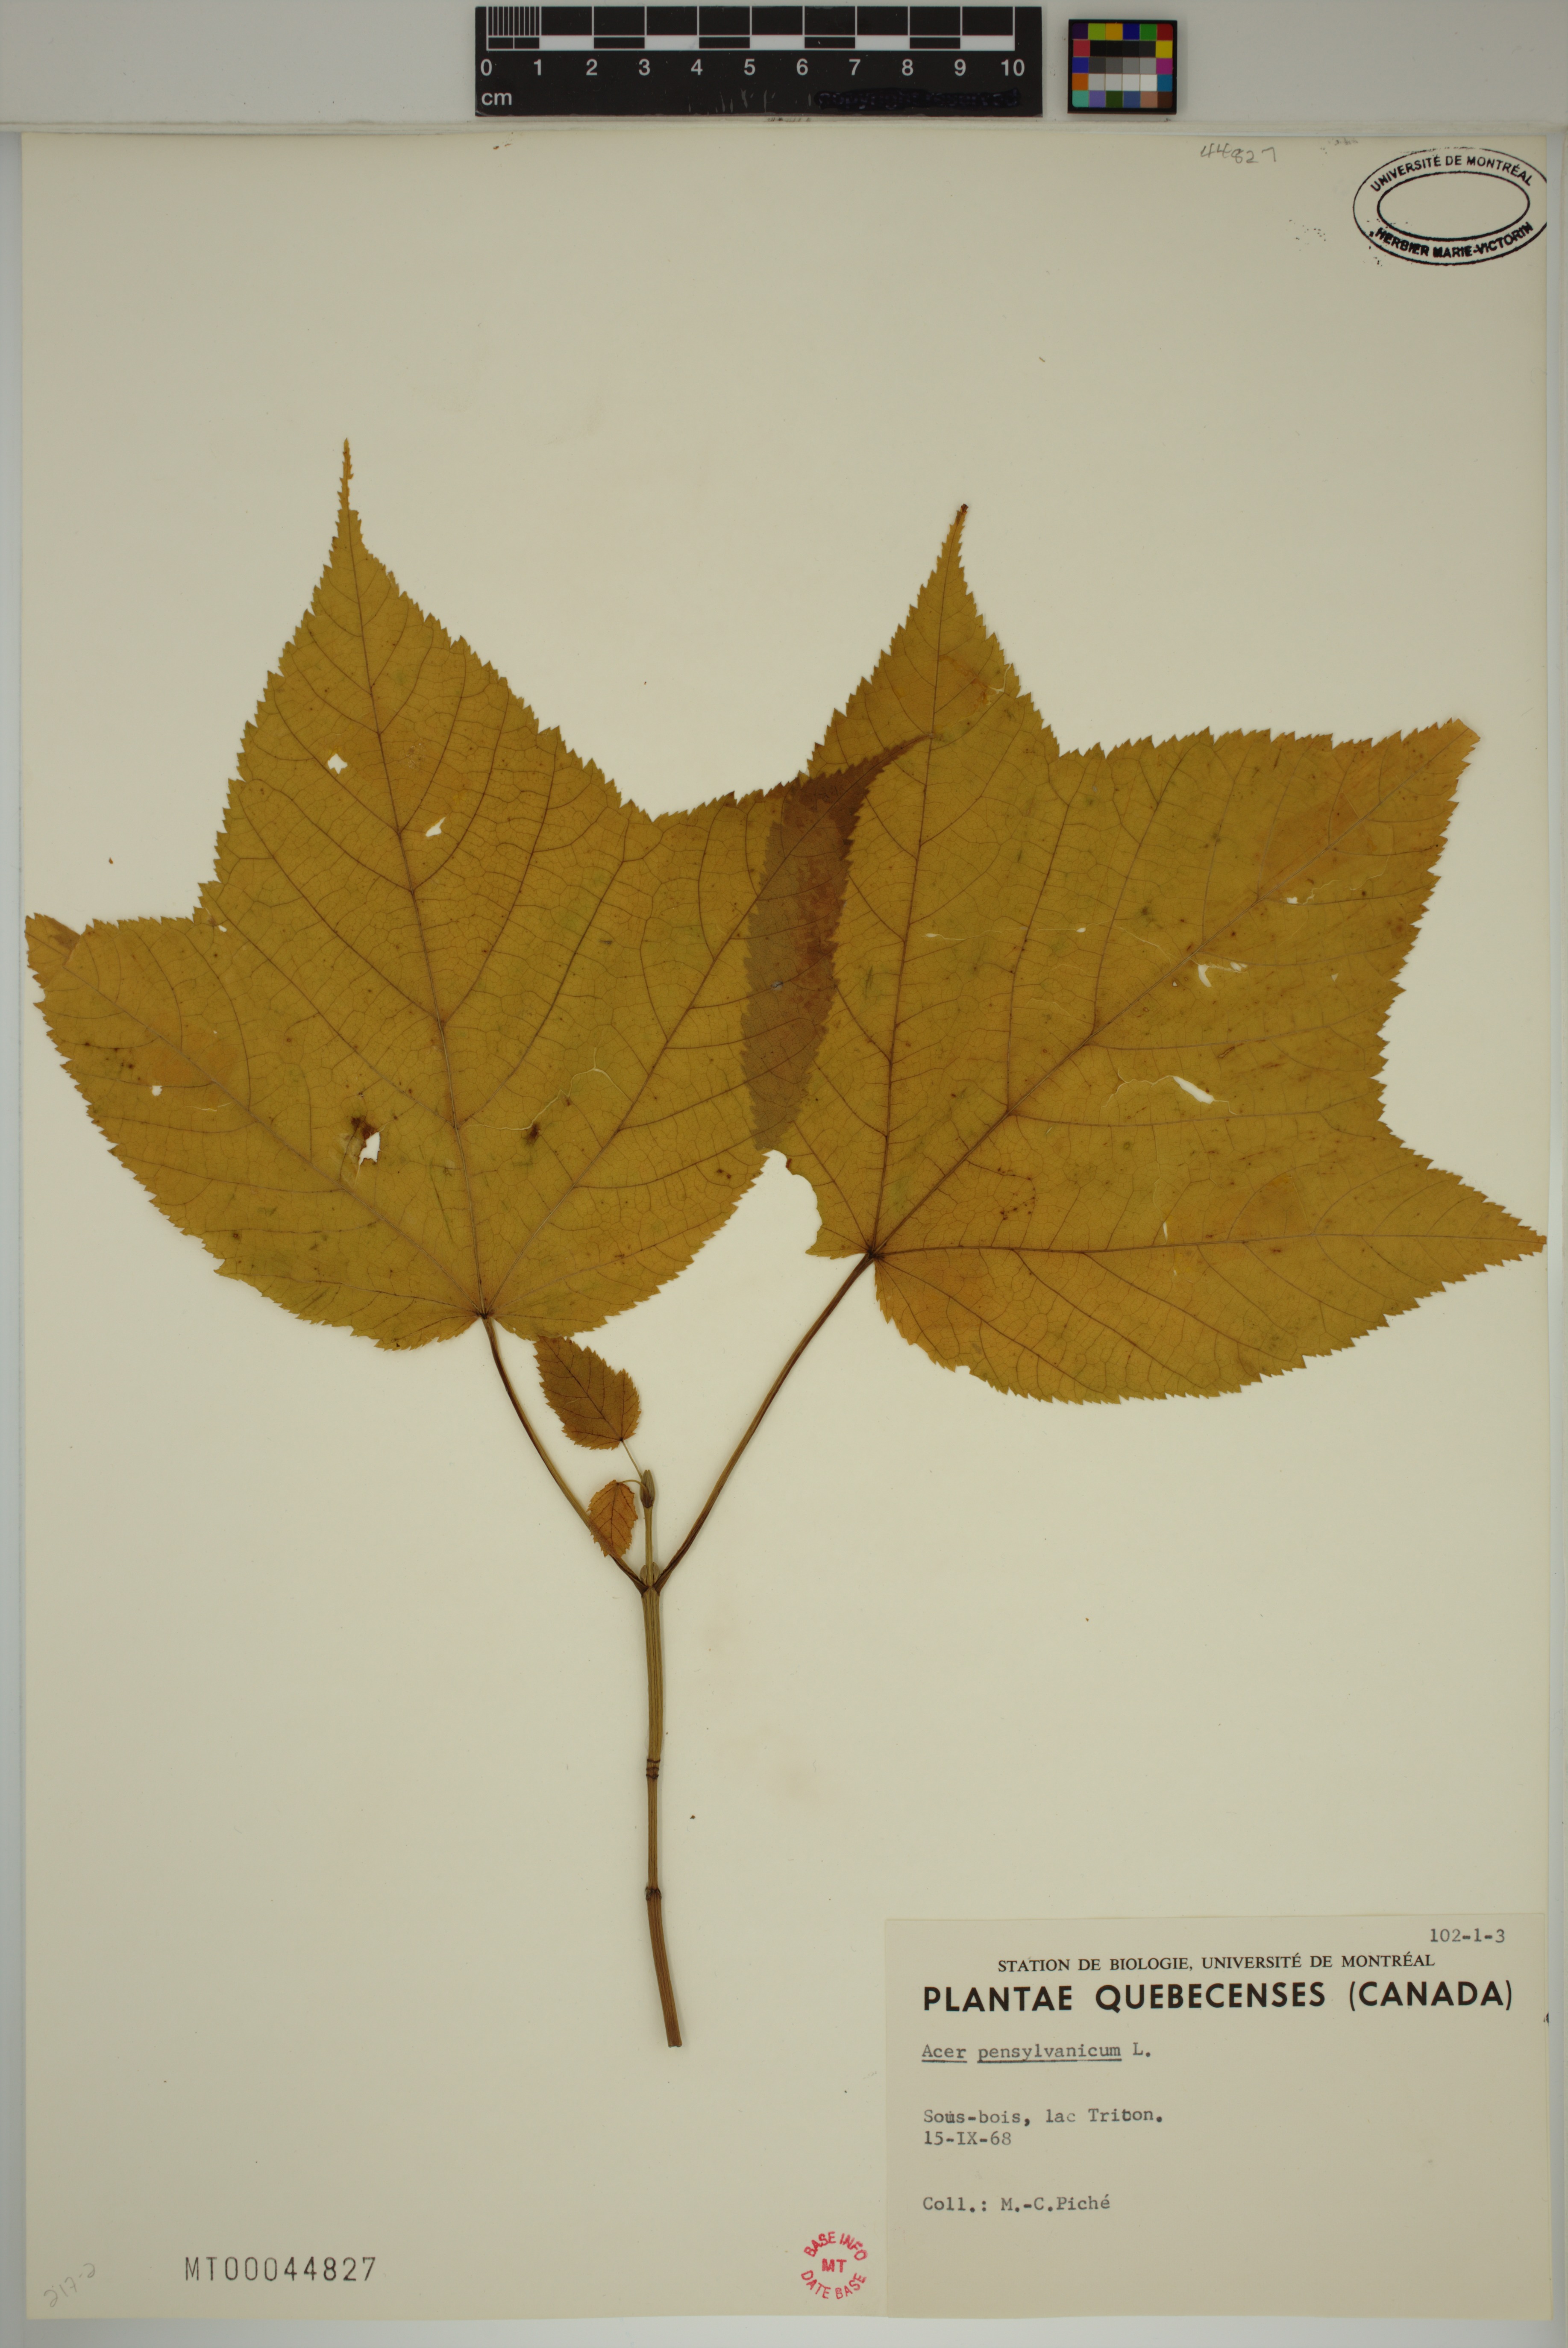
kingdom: Plantae
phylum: Tracheophyta
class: Magnoliopsida
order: Sapindales
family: Sapindaceae
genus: Acer
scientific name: Acer pensylvanicum
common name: Moosewood
